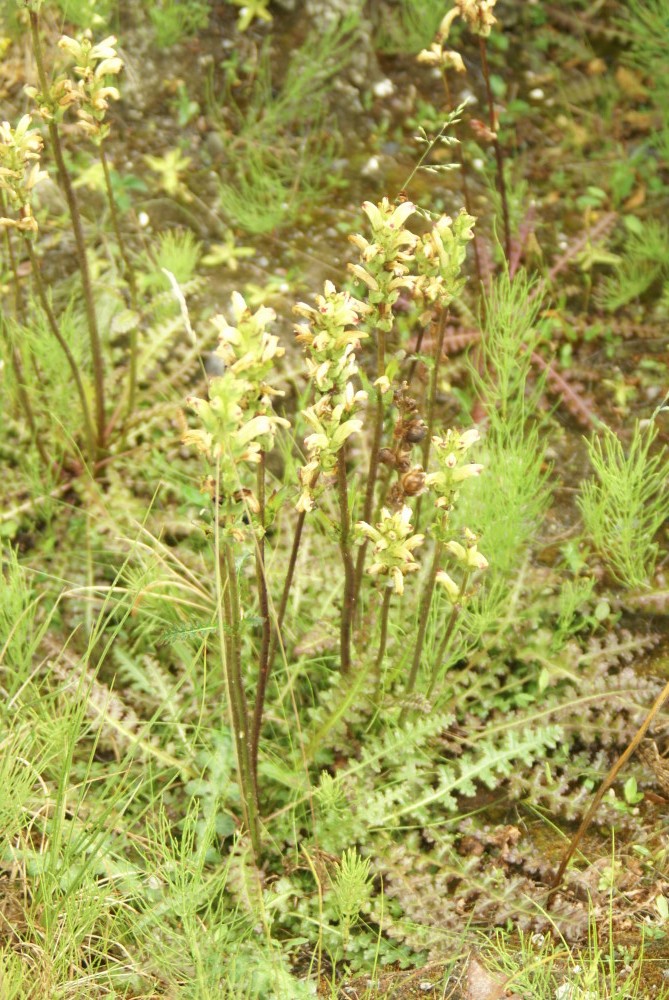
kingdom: Plantae
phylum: Tracheophyta
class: Magnoliopsida
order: Lamiales
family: Orobanchaceae
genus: Pedicularis
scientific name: Pedicularis sceptrum-carolinum
